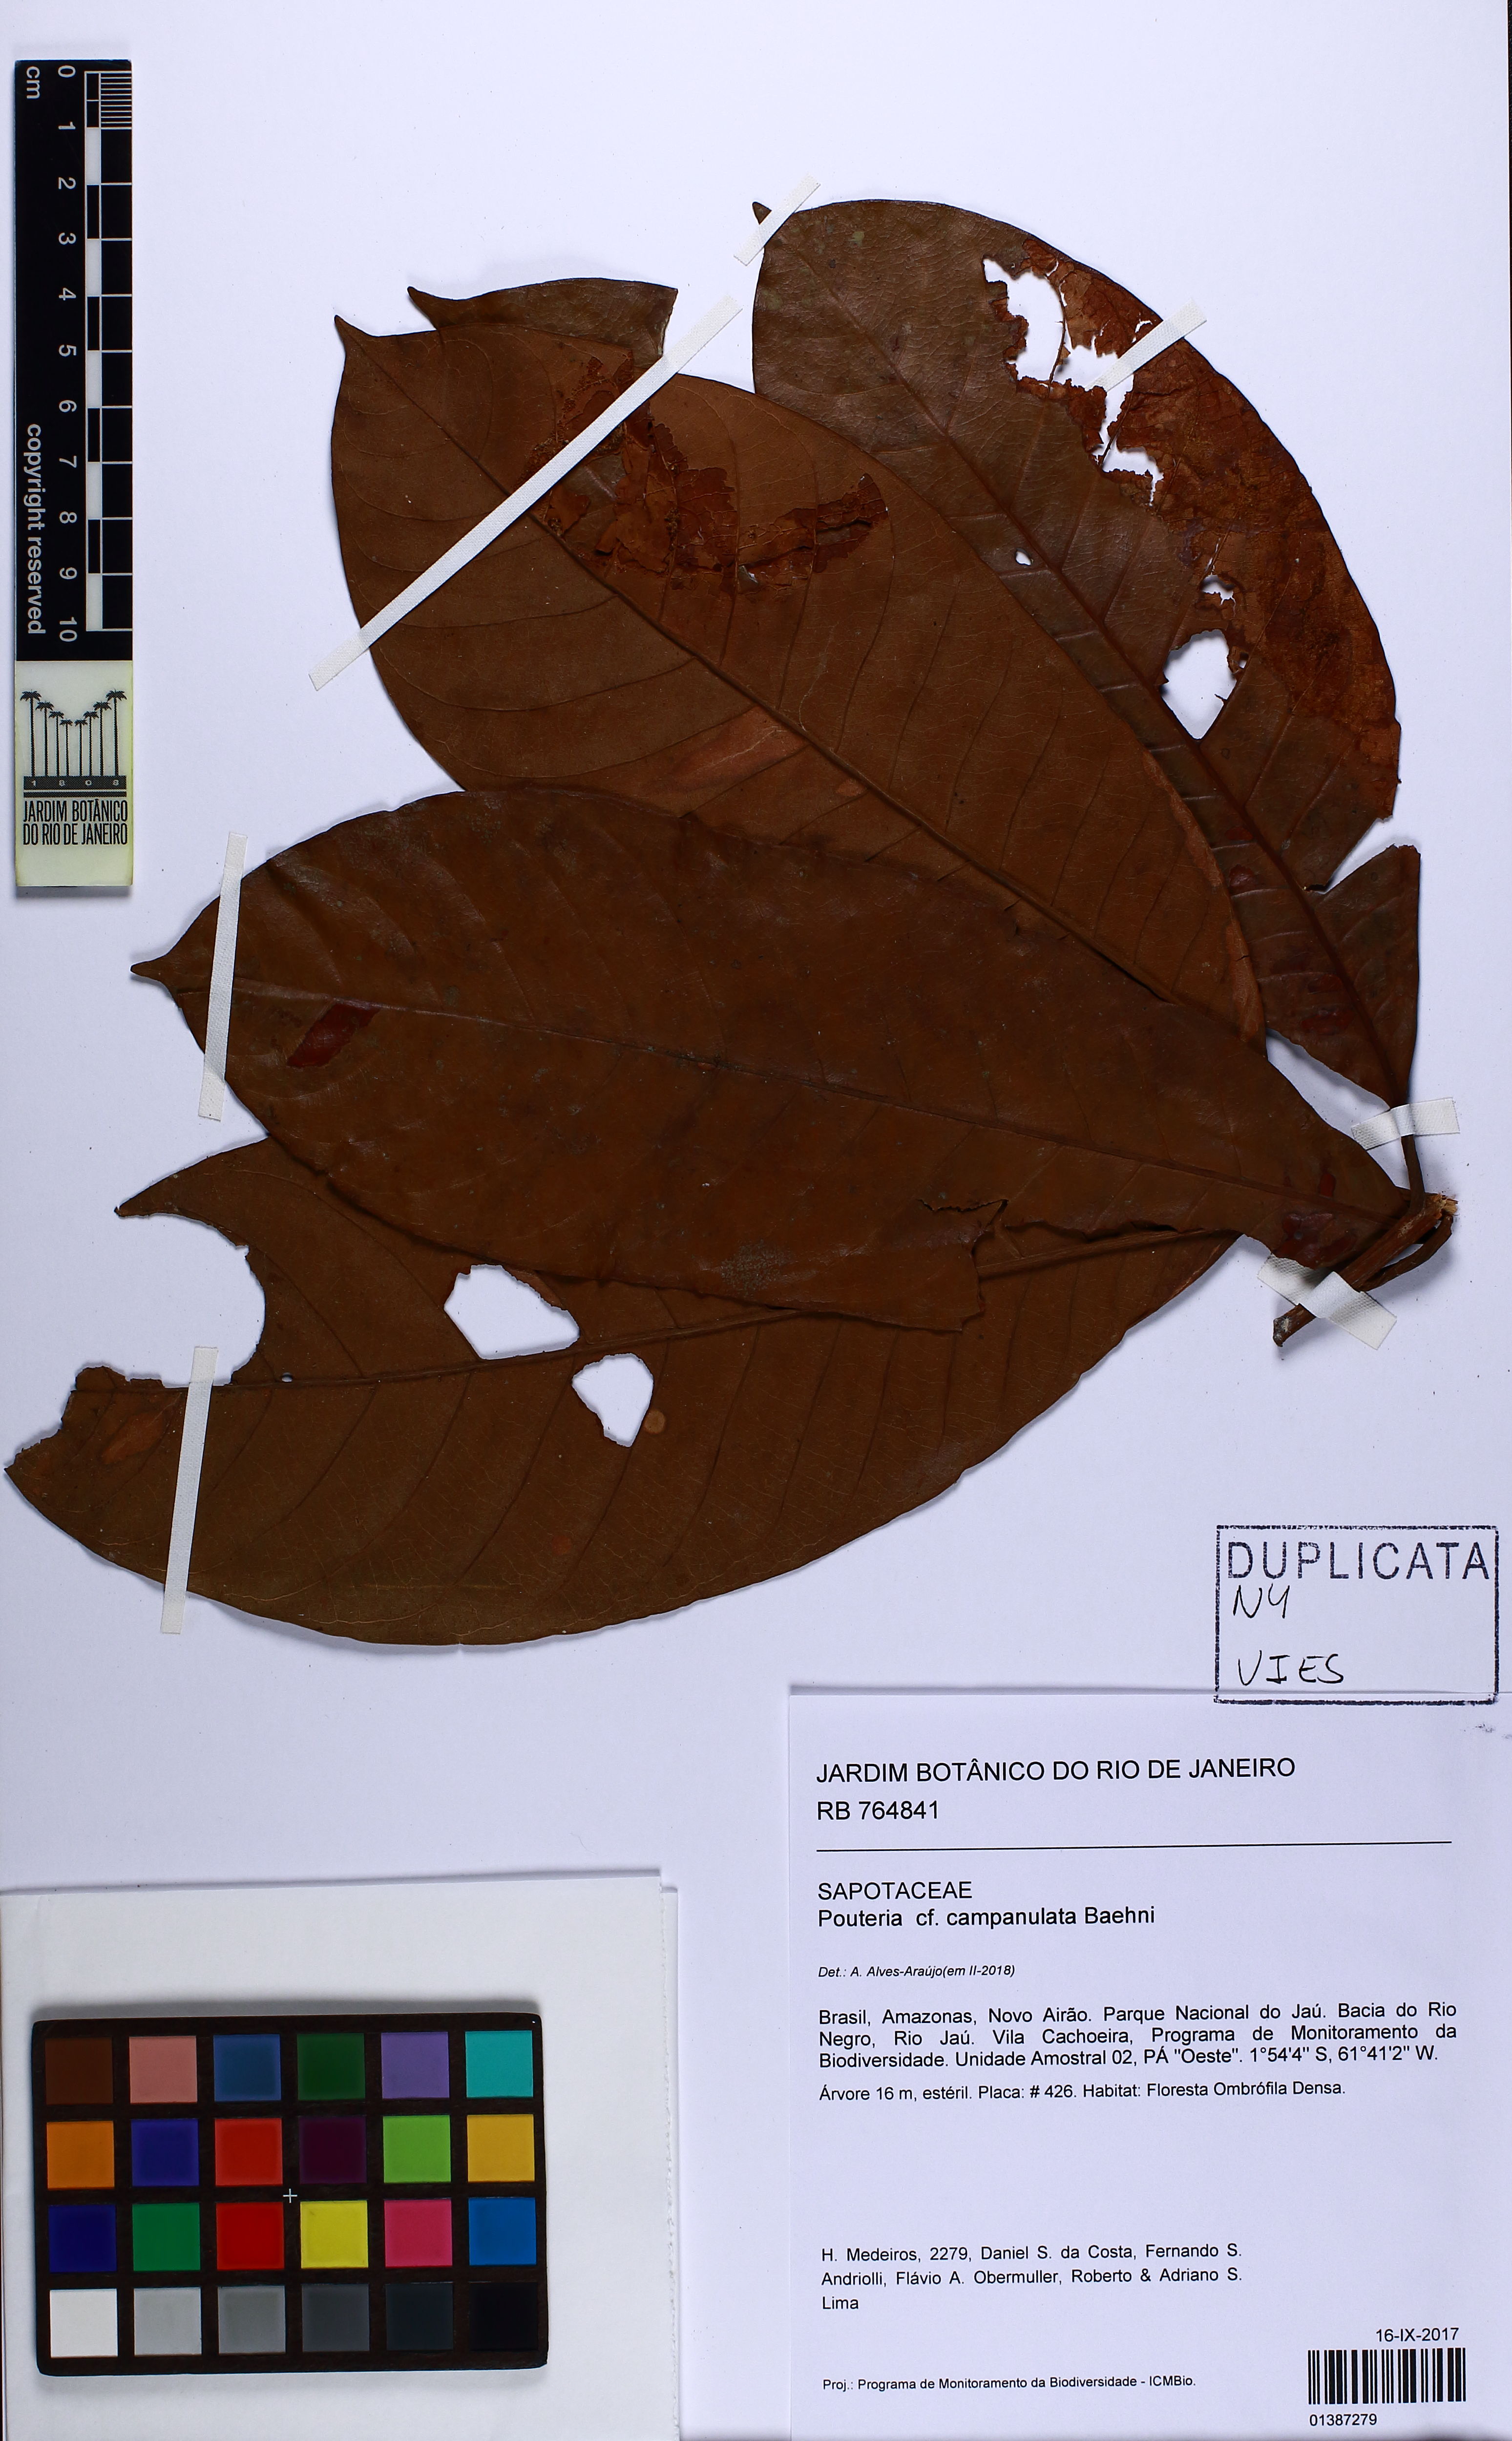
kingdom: Plantae
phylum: Tracheophyta
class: Magnoliopsida
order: Ericales
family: Sapotaceae
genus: Pouteria
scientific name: Pouteria campanulata
